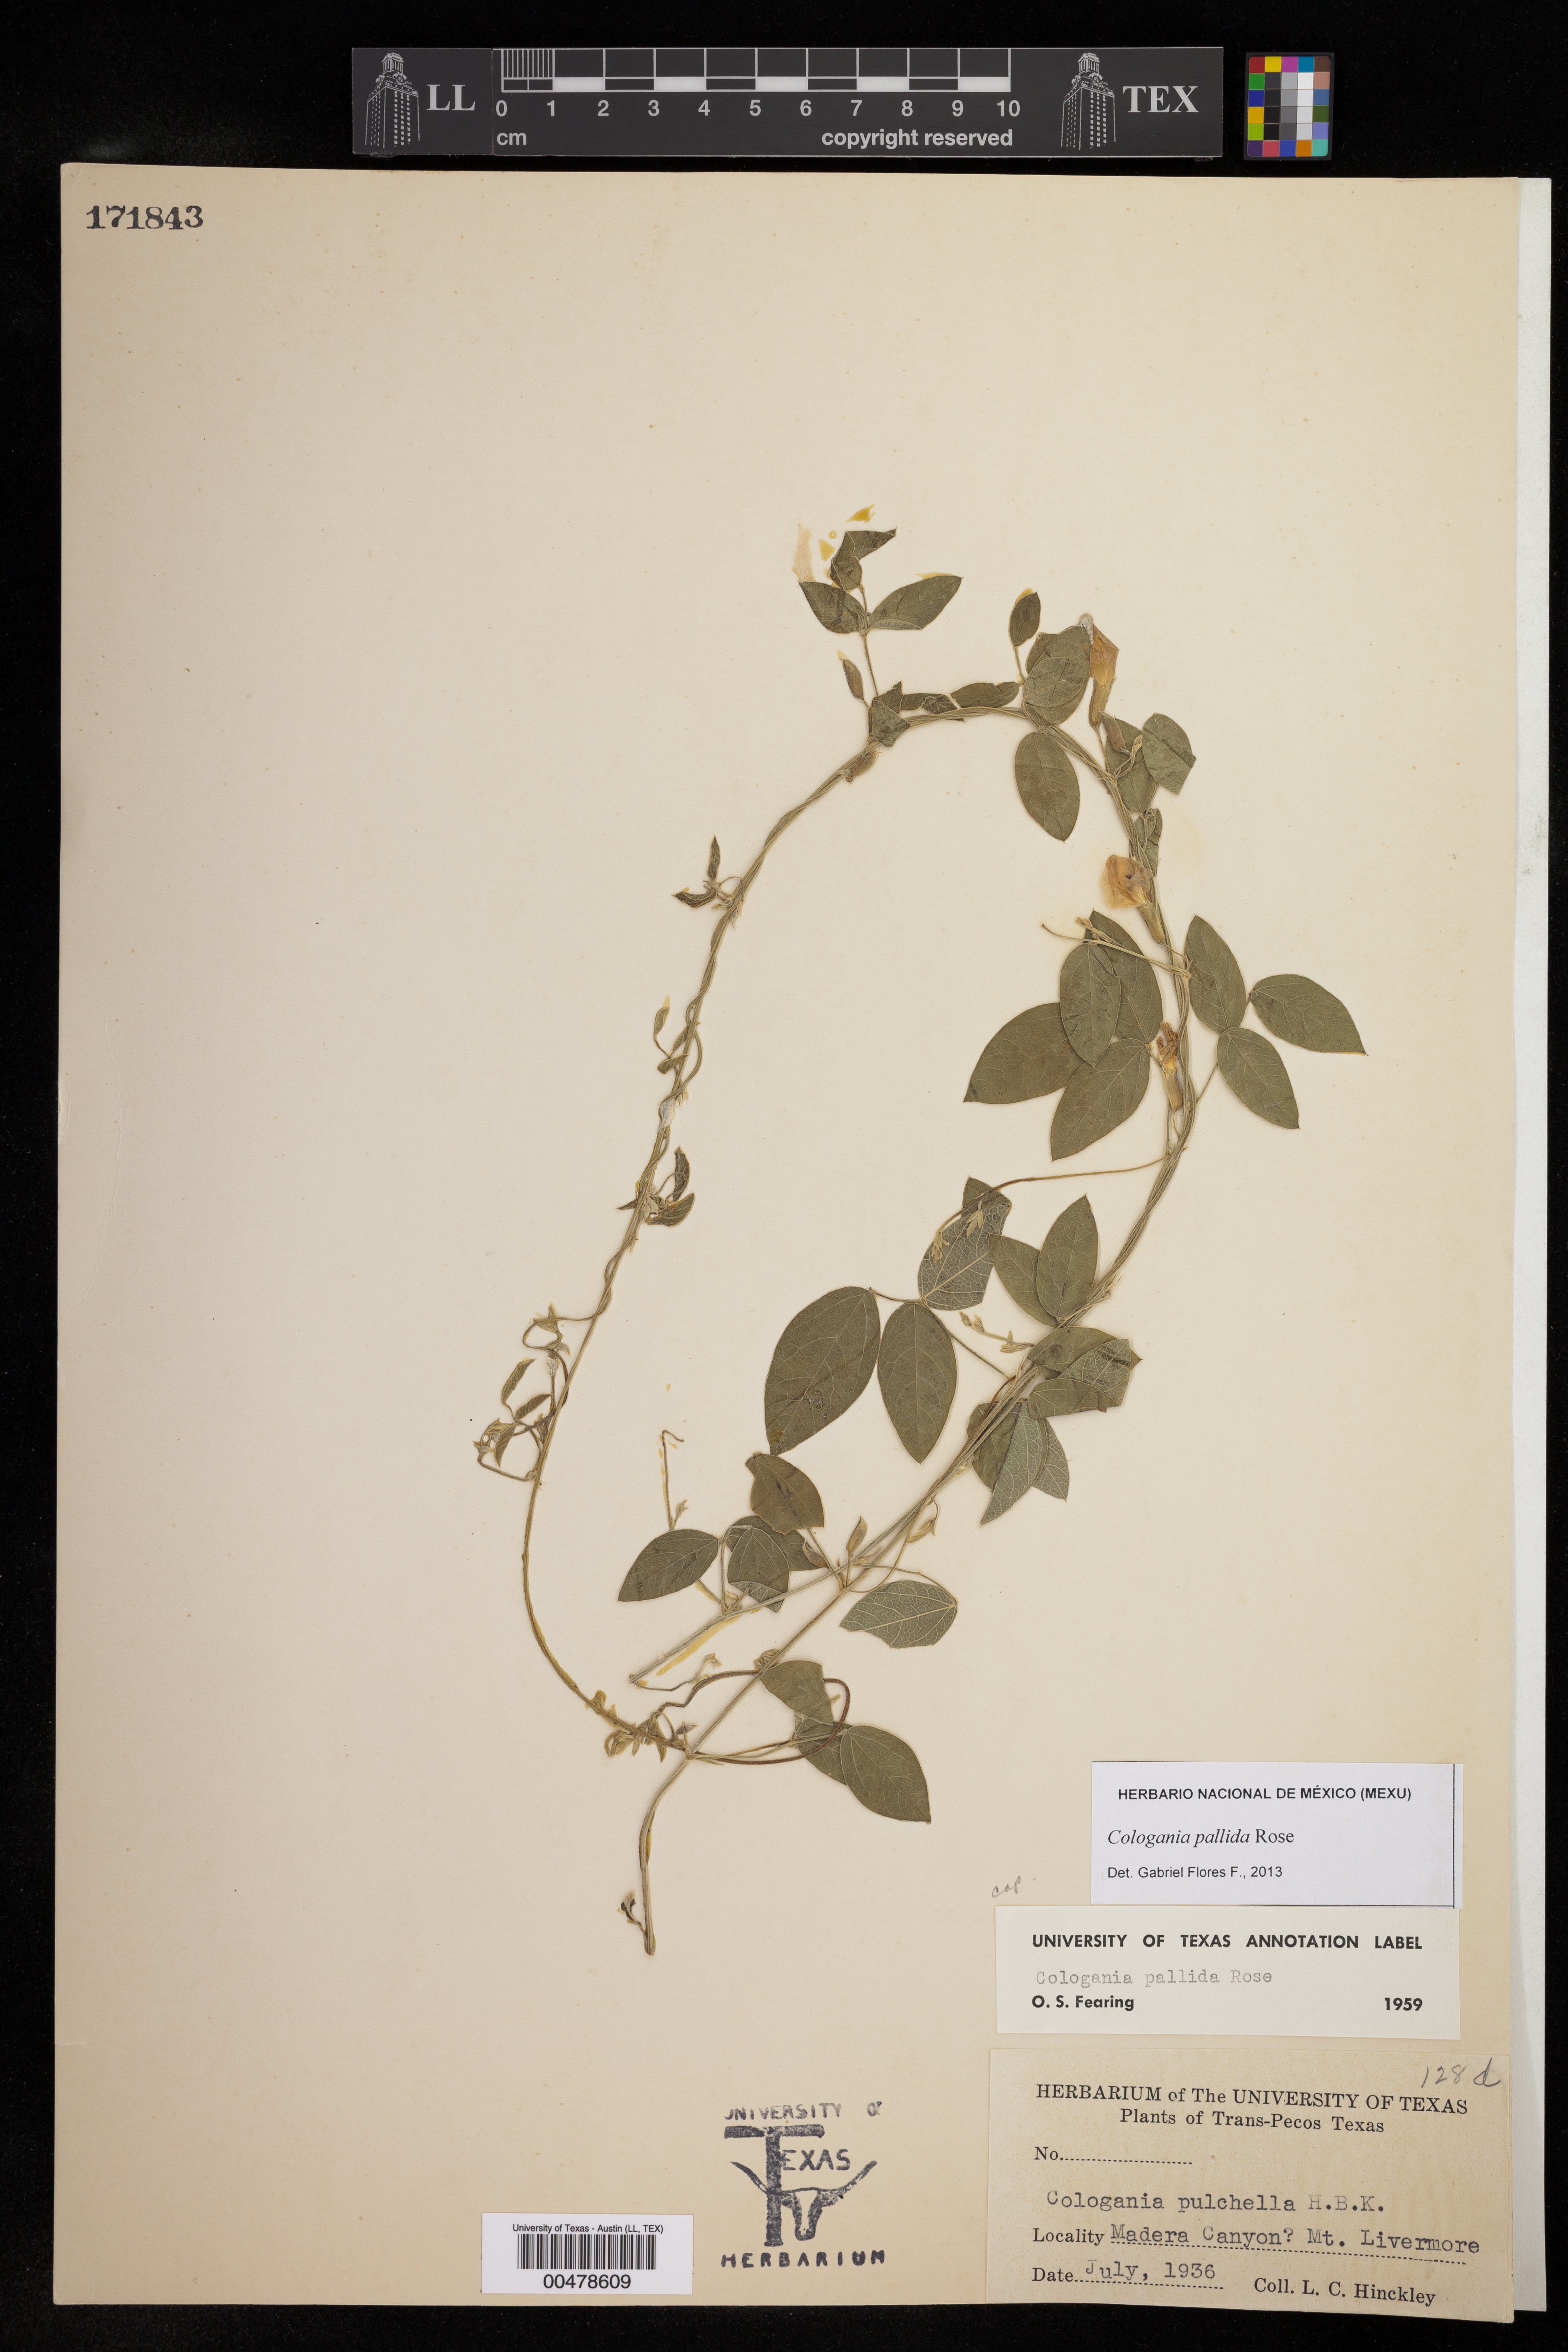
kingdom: Plantae
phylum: Tracheophyta
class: Magnoliopsida
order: Fabales
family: Fabaceae
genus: Cologania
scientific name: Cologania pallida
